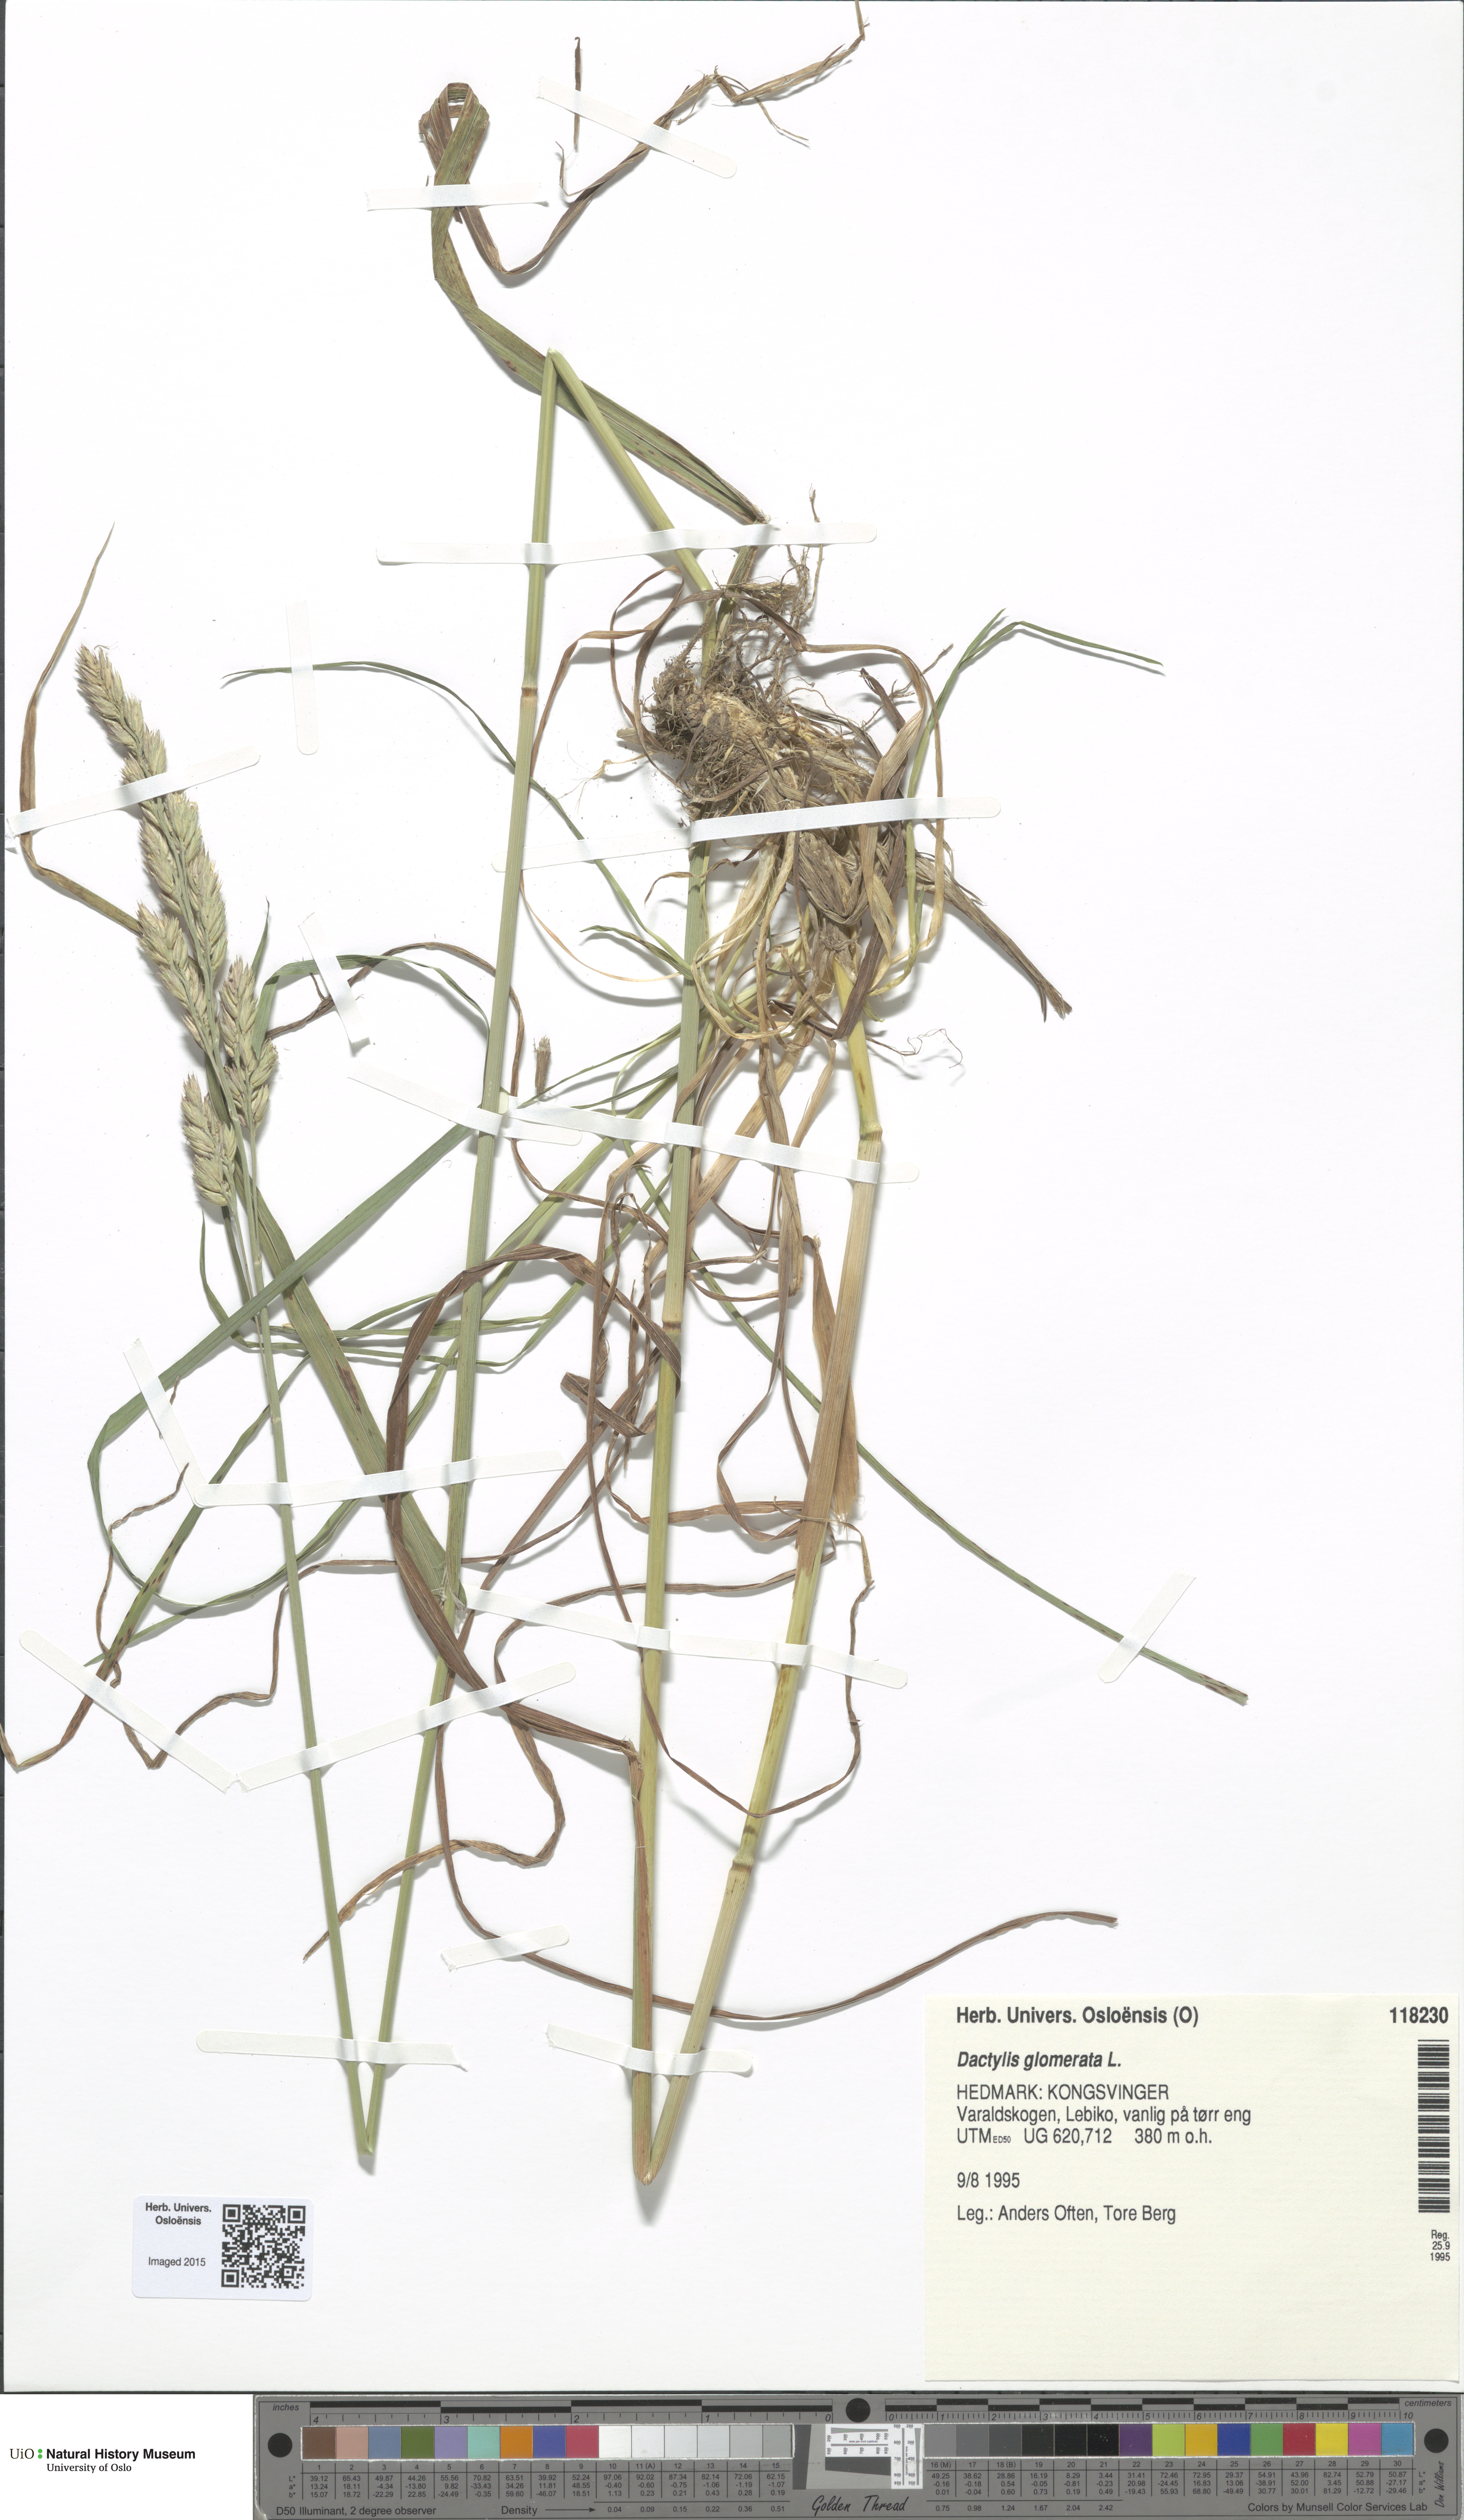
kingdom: Plantae
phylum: Tracheophyta
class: Liliopsida
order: Poales
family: Poaceae
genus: Dactylis
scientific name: Dactylis glomerata
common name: Orchardgrass
